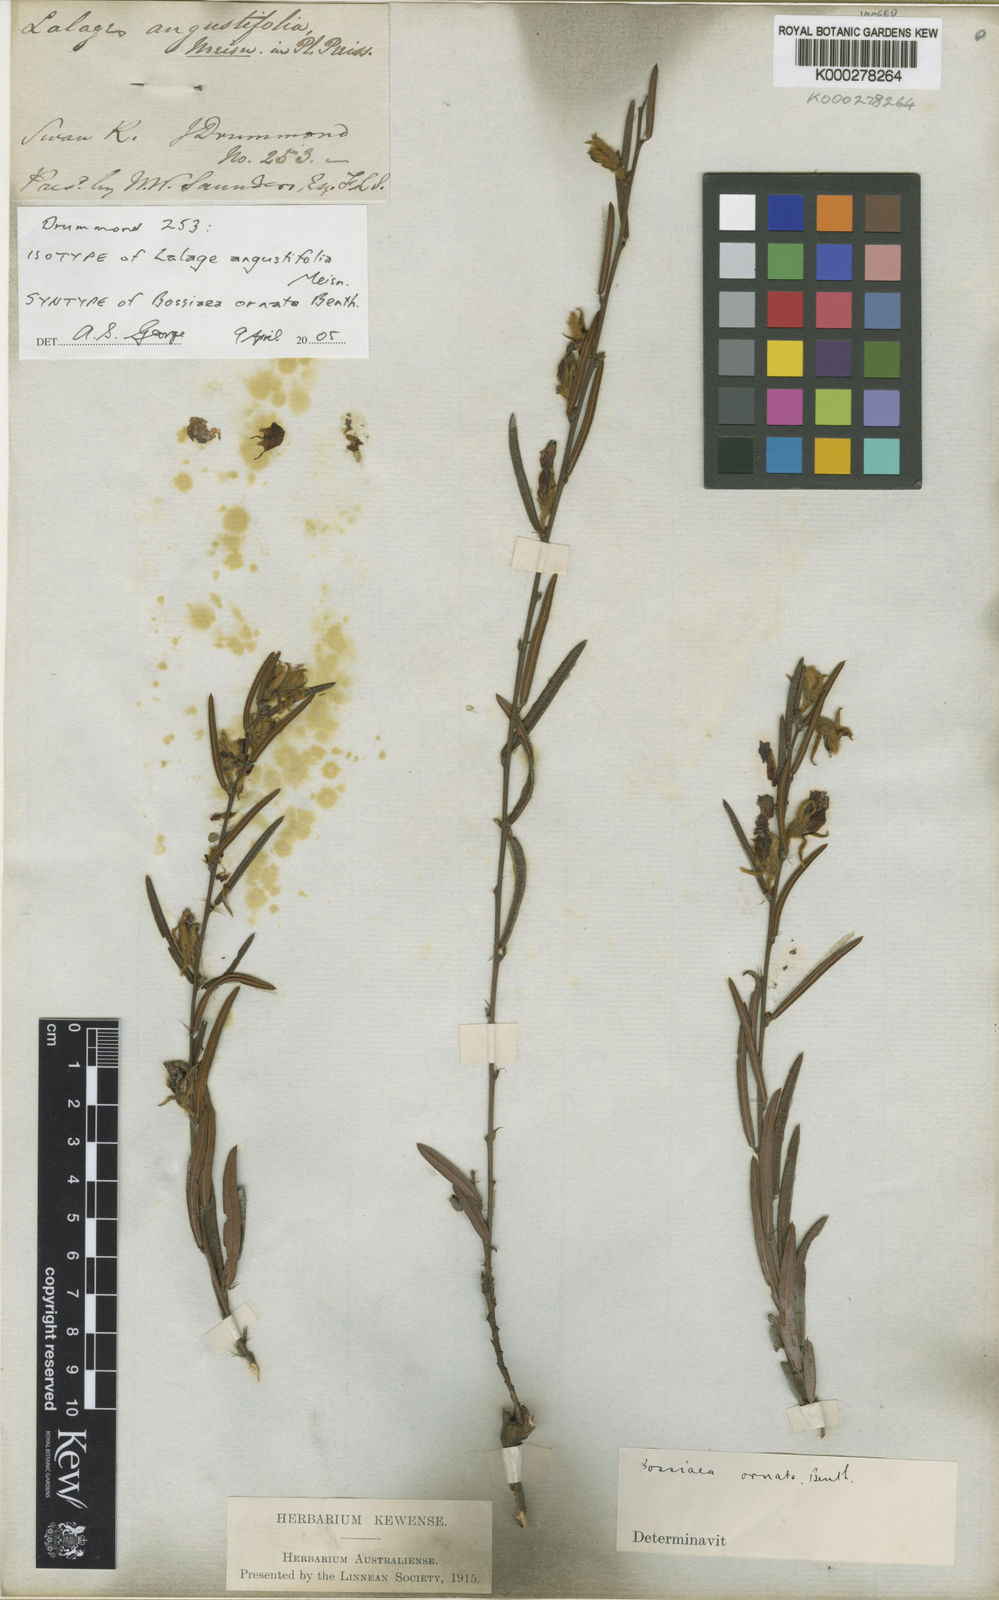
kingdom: Plantae
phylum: Tracheophyta
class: Magnoliopsida
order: Fabales
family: Fabaceae
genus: Bossiaea
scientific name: Bossiaea ornata
